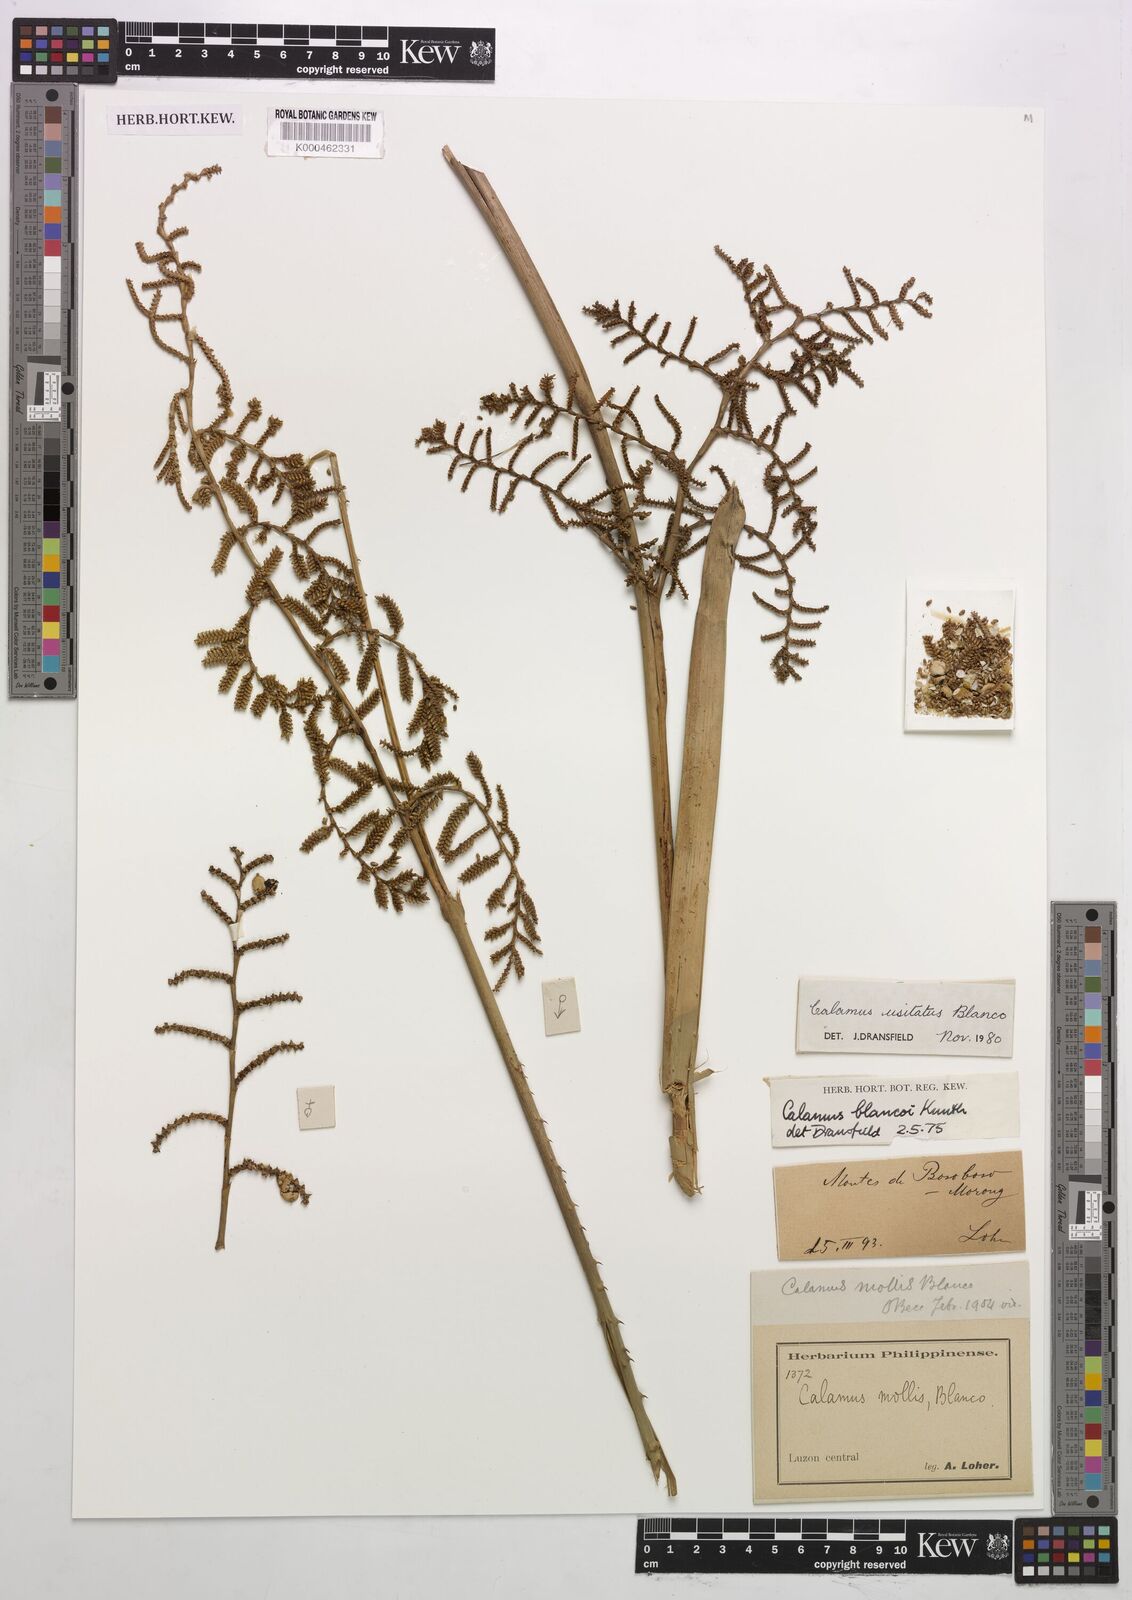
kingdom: Plantae
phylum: Tracheophyta
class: Liliopsida
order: Arecales
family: Arecaceae
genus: Calamus
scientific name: Calamus usitatus
